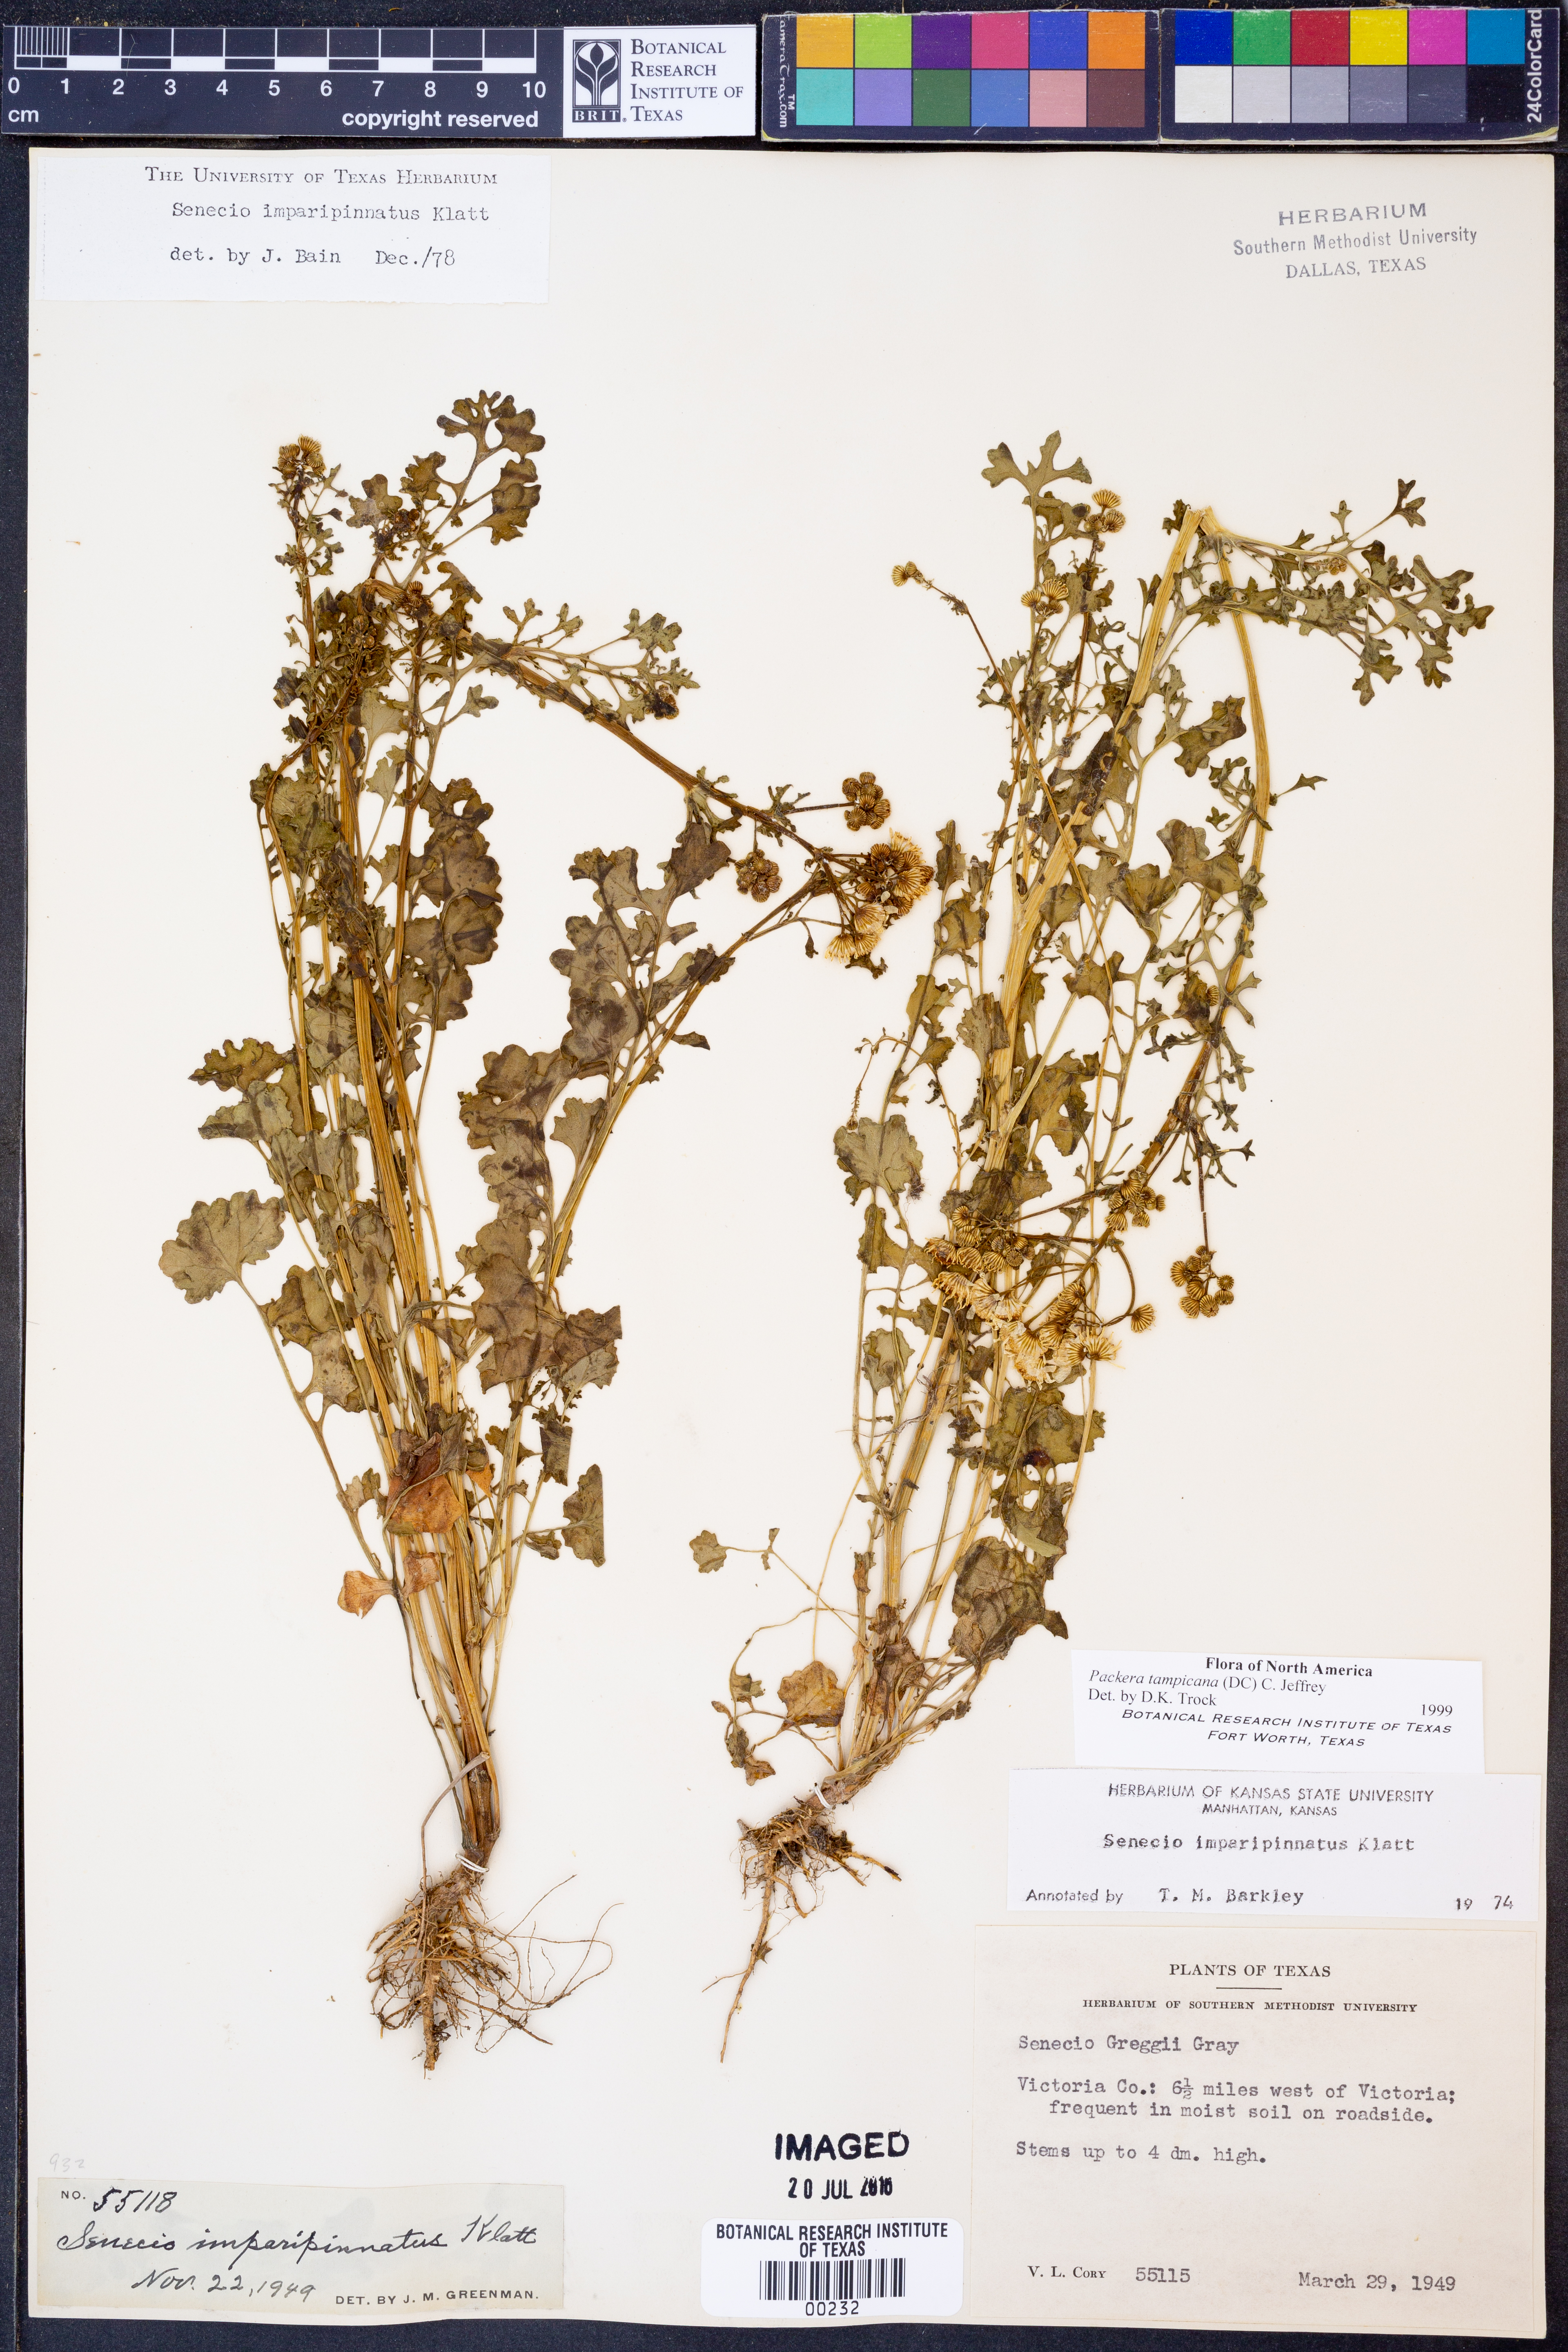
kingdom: Plantae
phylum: Tracheophyta
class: Magnoliopsida
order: Asterales
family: Asteraceae
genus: Packera
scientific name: Packera tampicana
